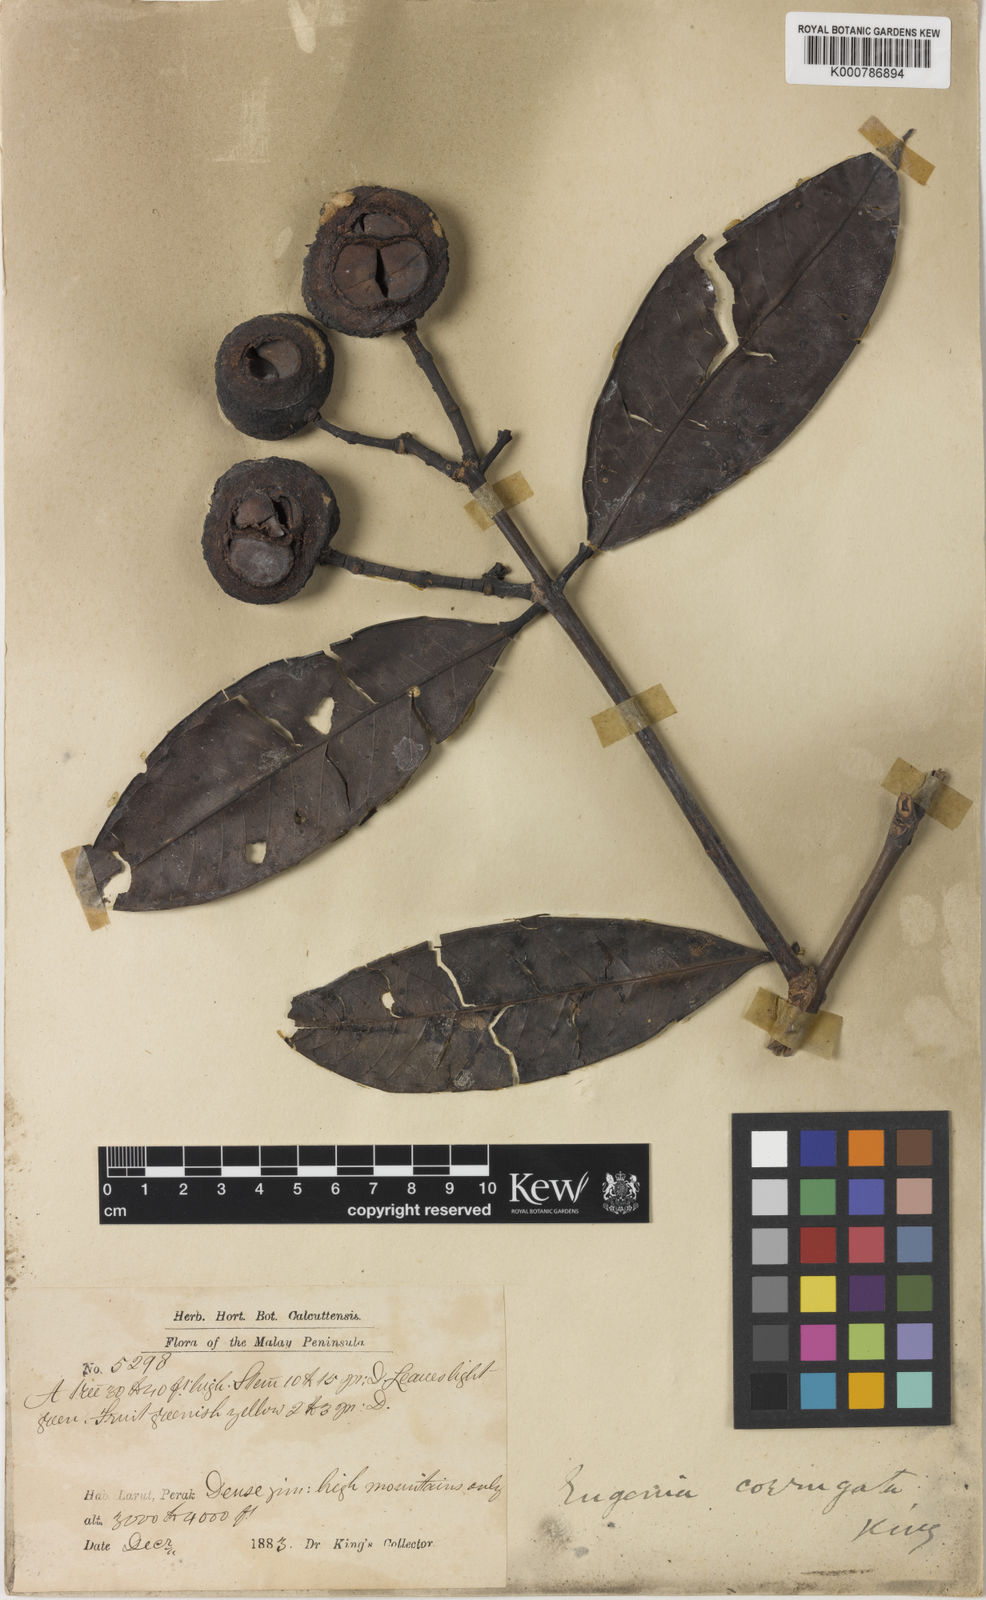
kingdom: Plantae
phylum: Tracheophyta
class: Magnoliopsida
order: Myrtales
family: Myrtaceae
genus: Syzygium
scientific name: Syzygium dyerianum
